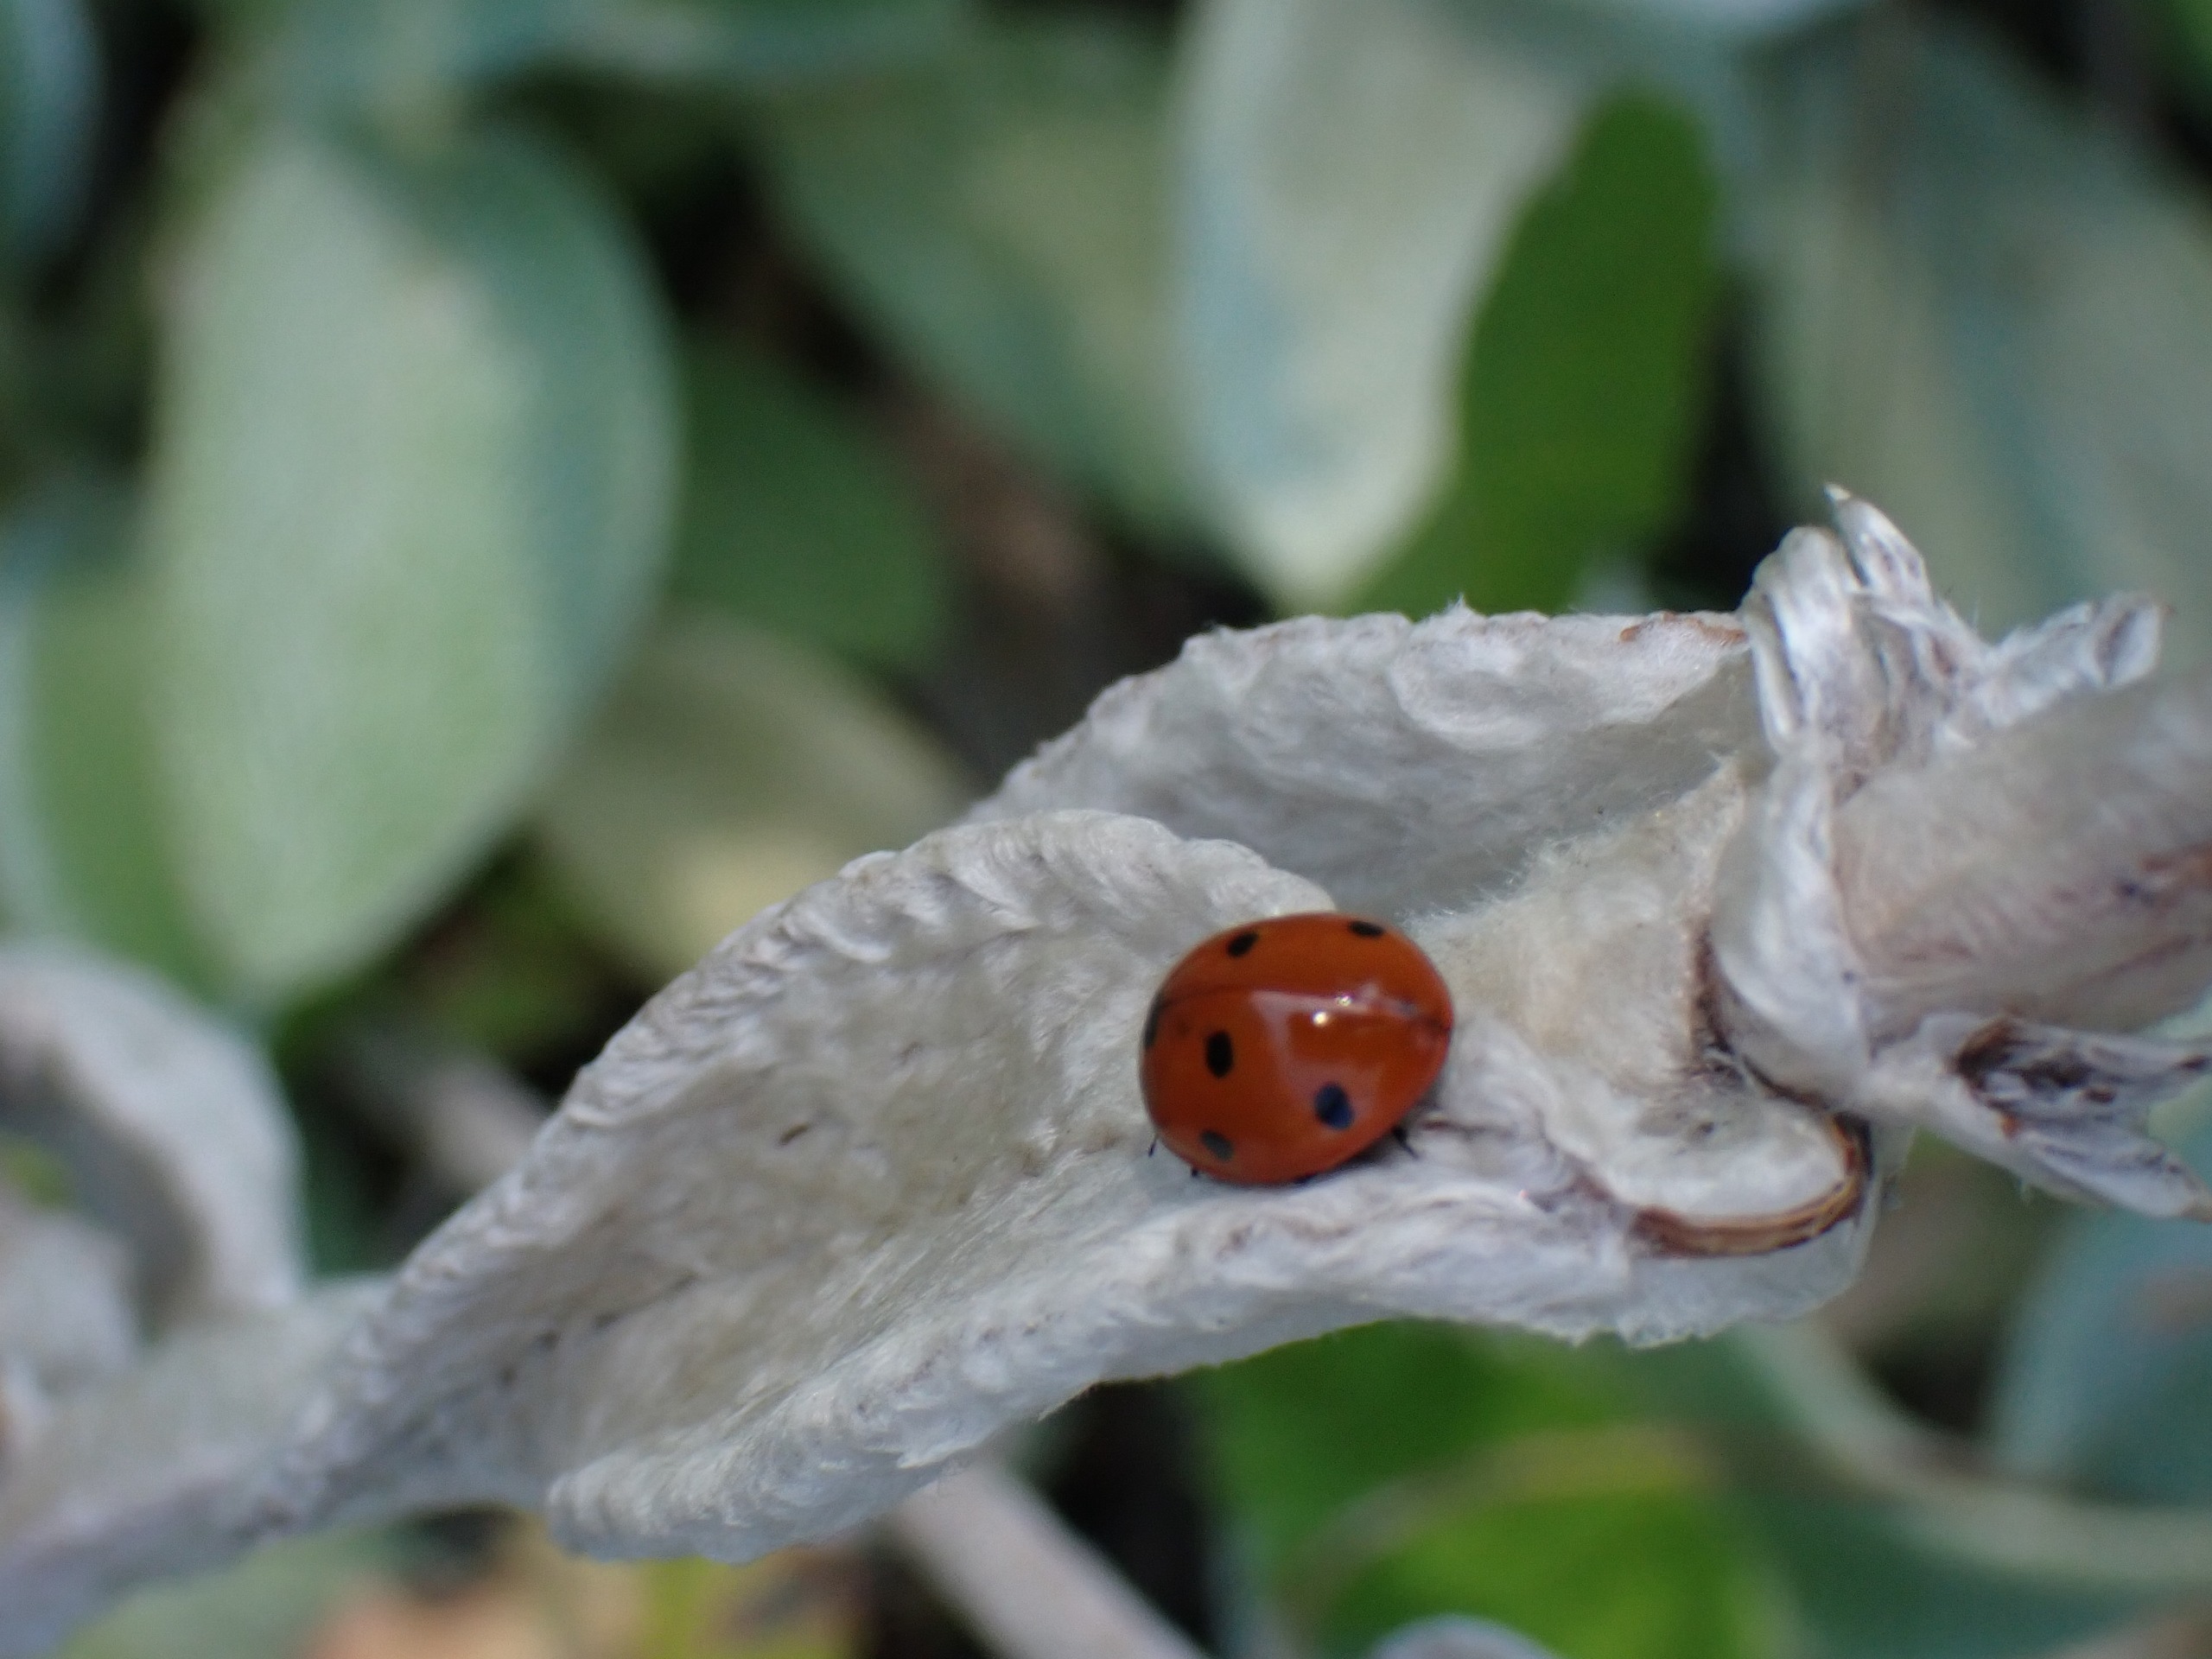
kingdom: Animalia
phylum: Arthropoda
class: Insecta
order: Coleoptera
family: Coccinellidae
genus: Coccinella
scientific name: Coccinella septempunctata
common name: Syvplettet mariehøne
